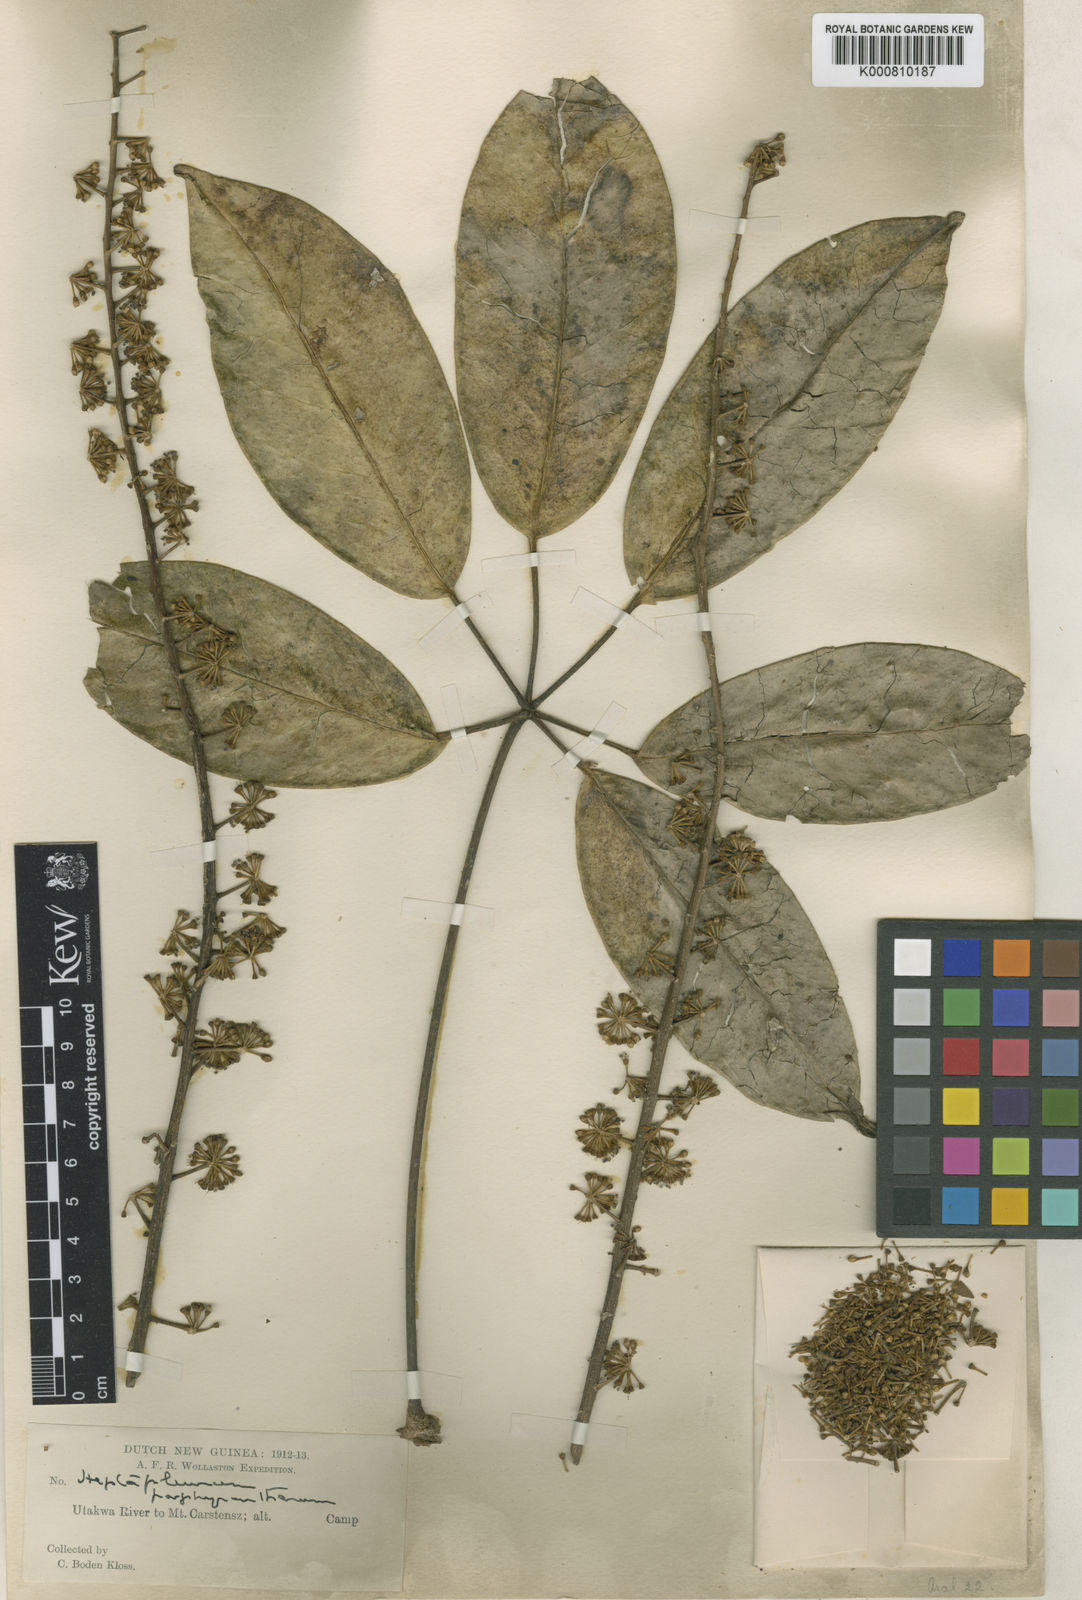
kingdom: Plantae
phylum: Tracheophyta
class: Magnoliopsida
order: Apiales
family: Araliaceae
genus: Heptapleurum
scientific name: Heptapleurum porphyrantherum
